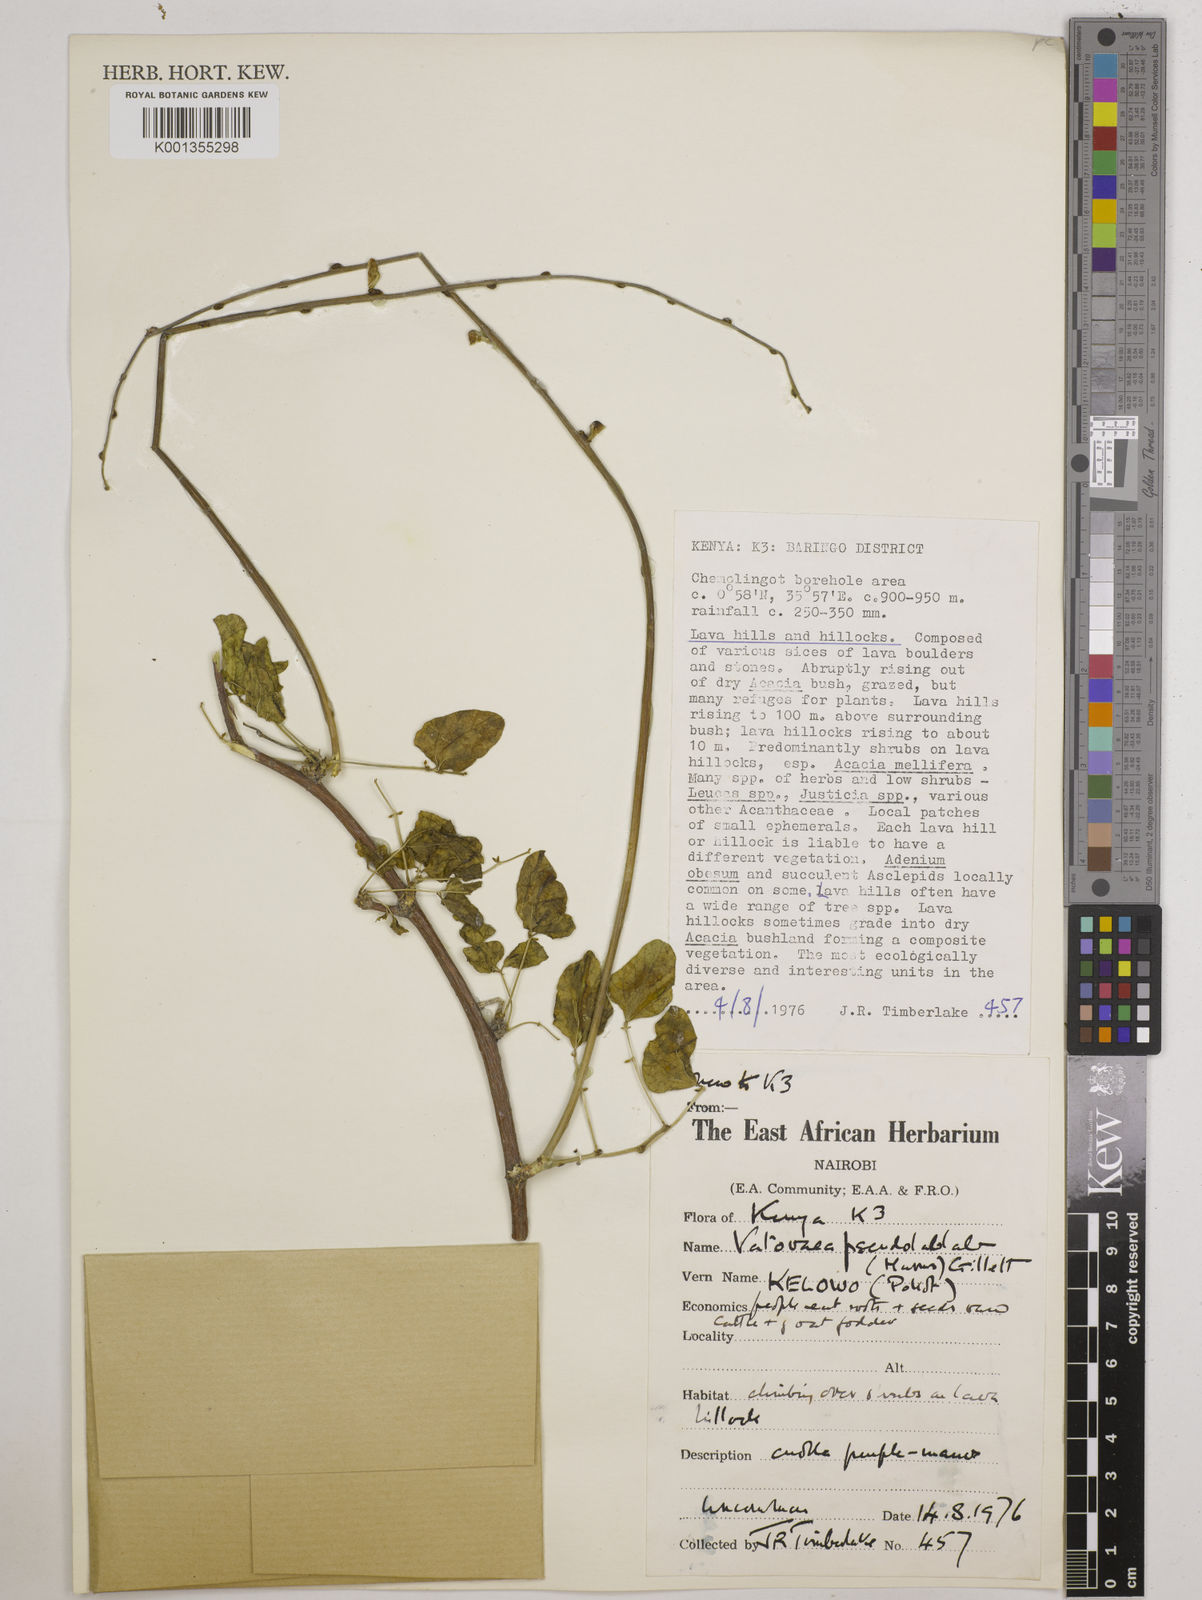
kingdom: Plantae
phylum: Tracheophyta
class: Magnoliopsida
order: Fabales
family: Fabaceae
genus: Vatovaea
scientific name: Vatovaea pseudolablab
